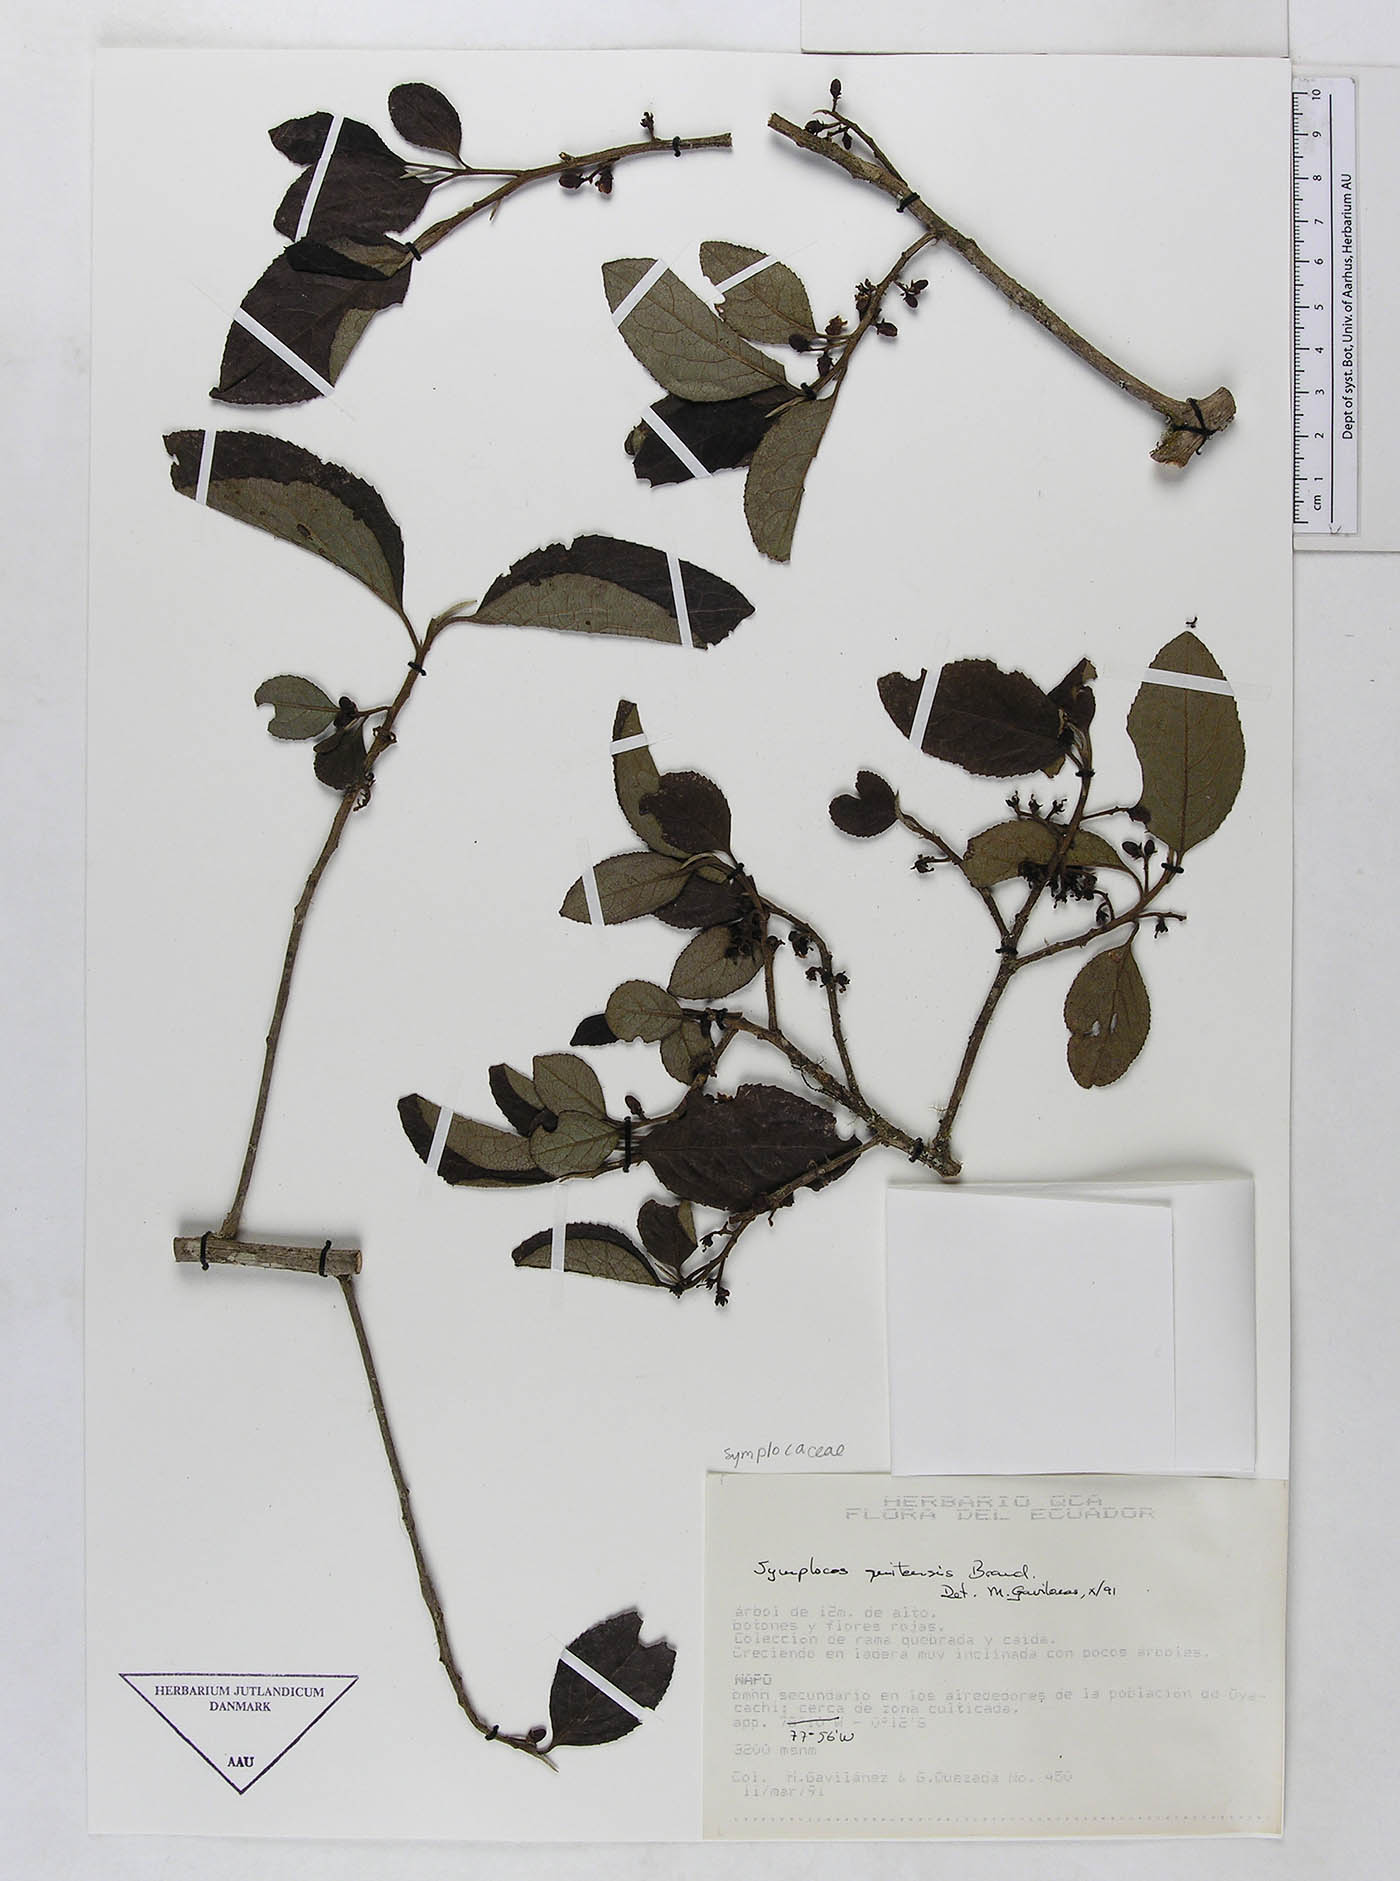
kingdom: Plantae
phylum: Tracheophyta
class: Magnoliopsida
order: Ericales
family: Symplocaceae
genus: Symplocos
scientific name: Symplocos quitensis
